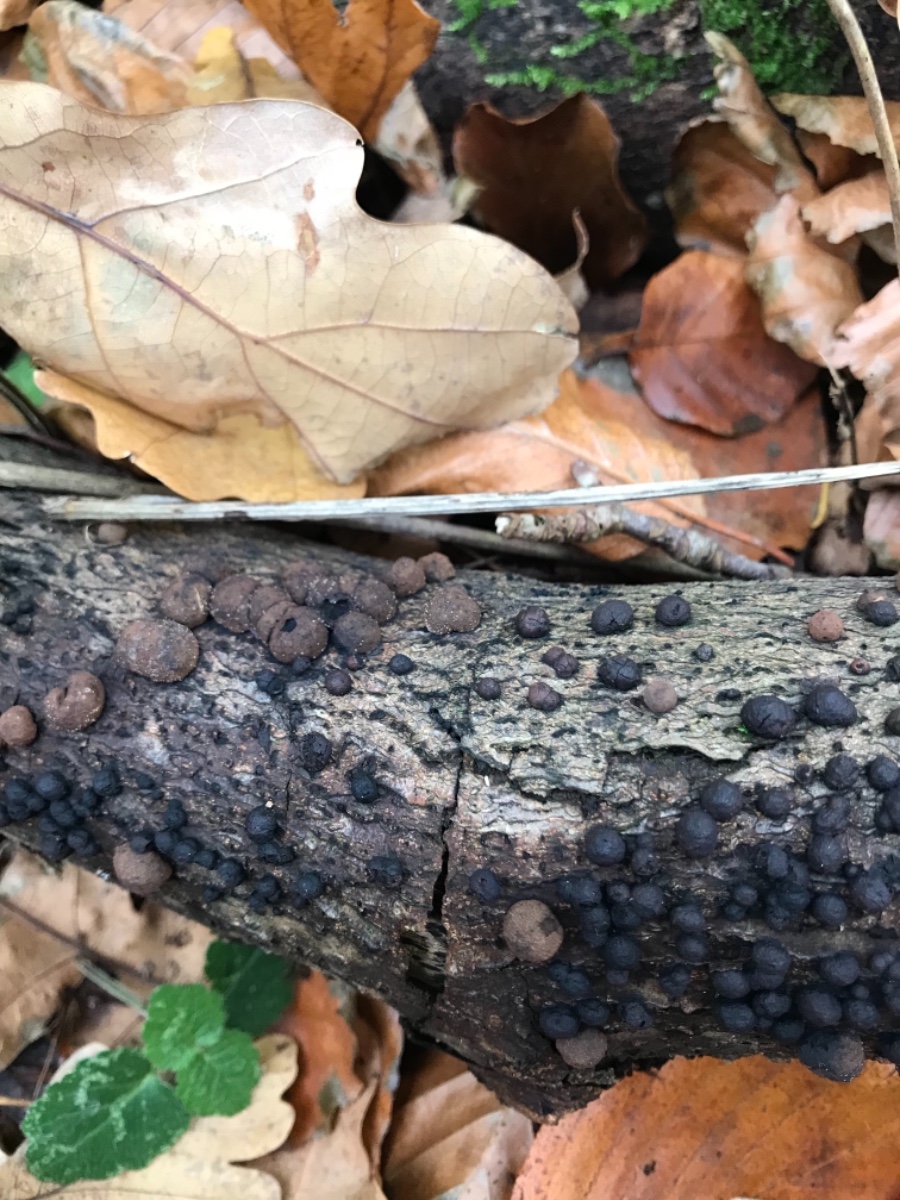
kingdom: Fungi
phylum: Ascomycota
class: Sordariomycetes
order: Xylariales
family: Hypoxylaceae
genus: Hypoxylon
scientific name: Hypoxylon fragiforme
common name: kuljordbær
